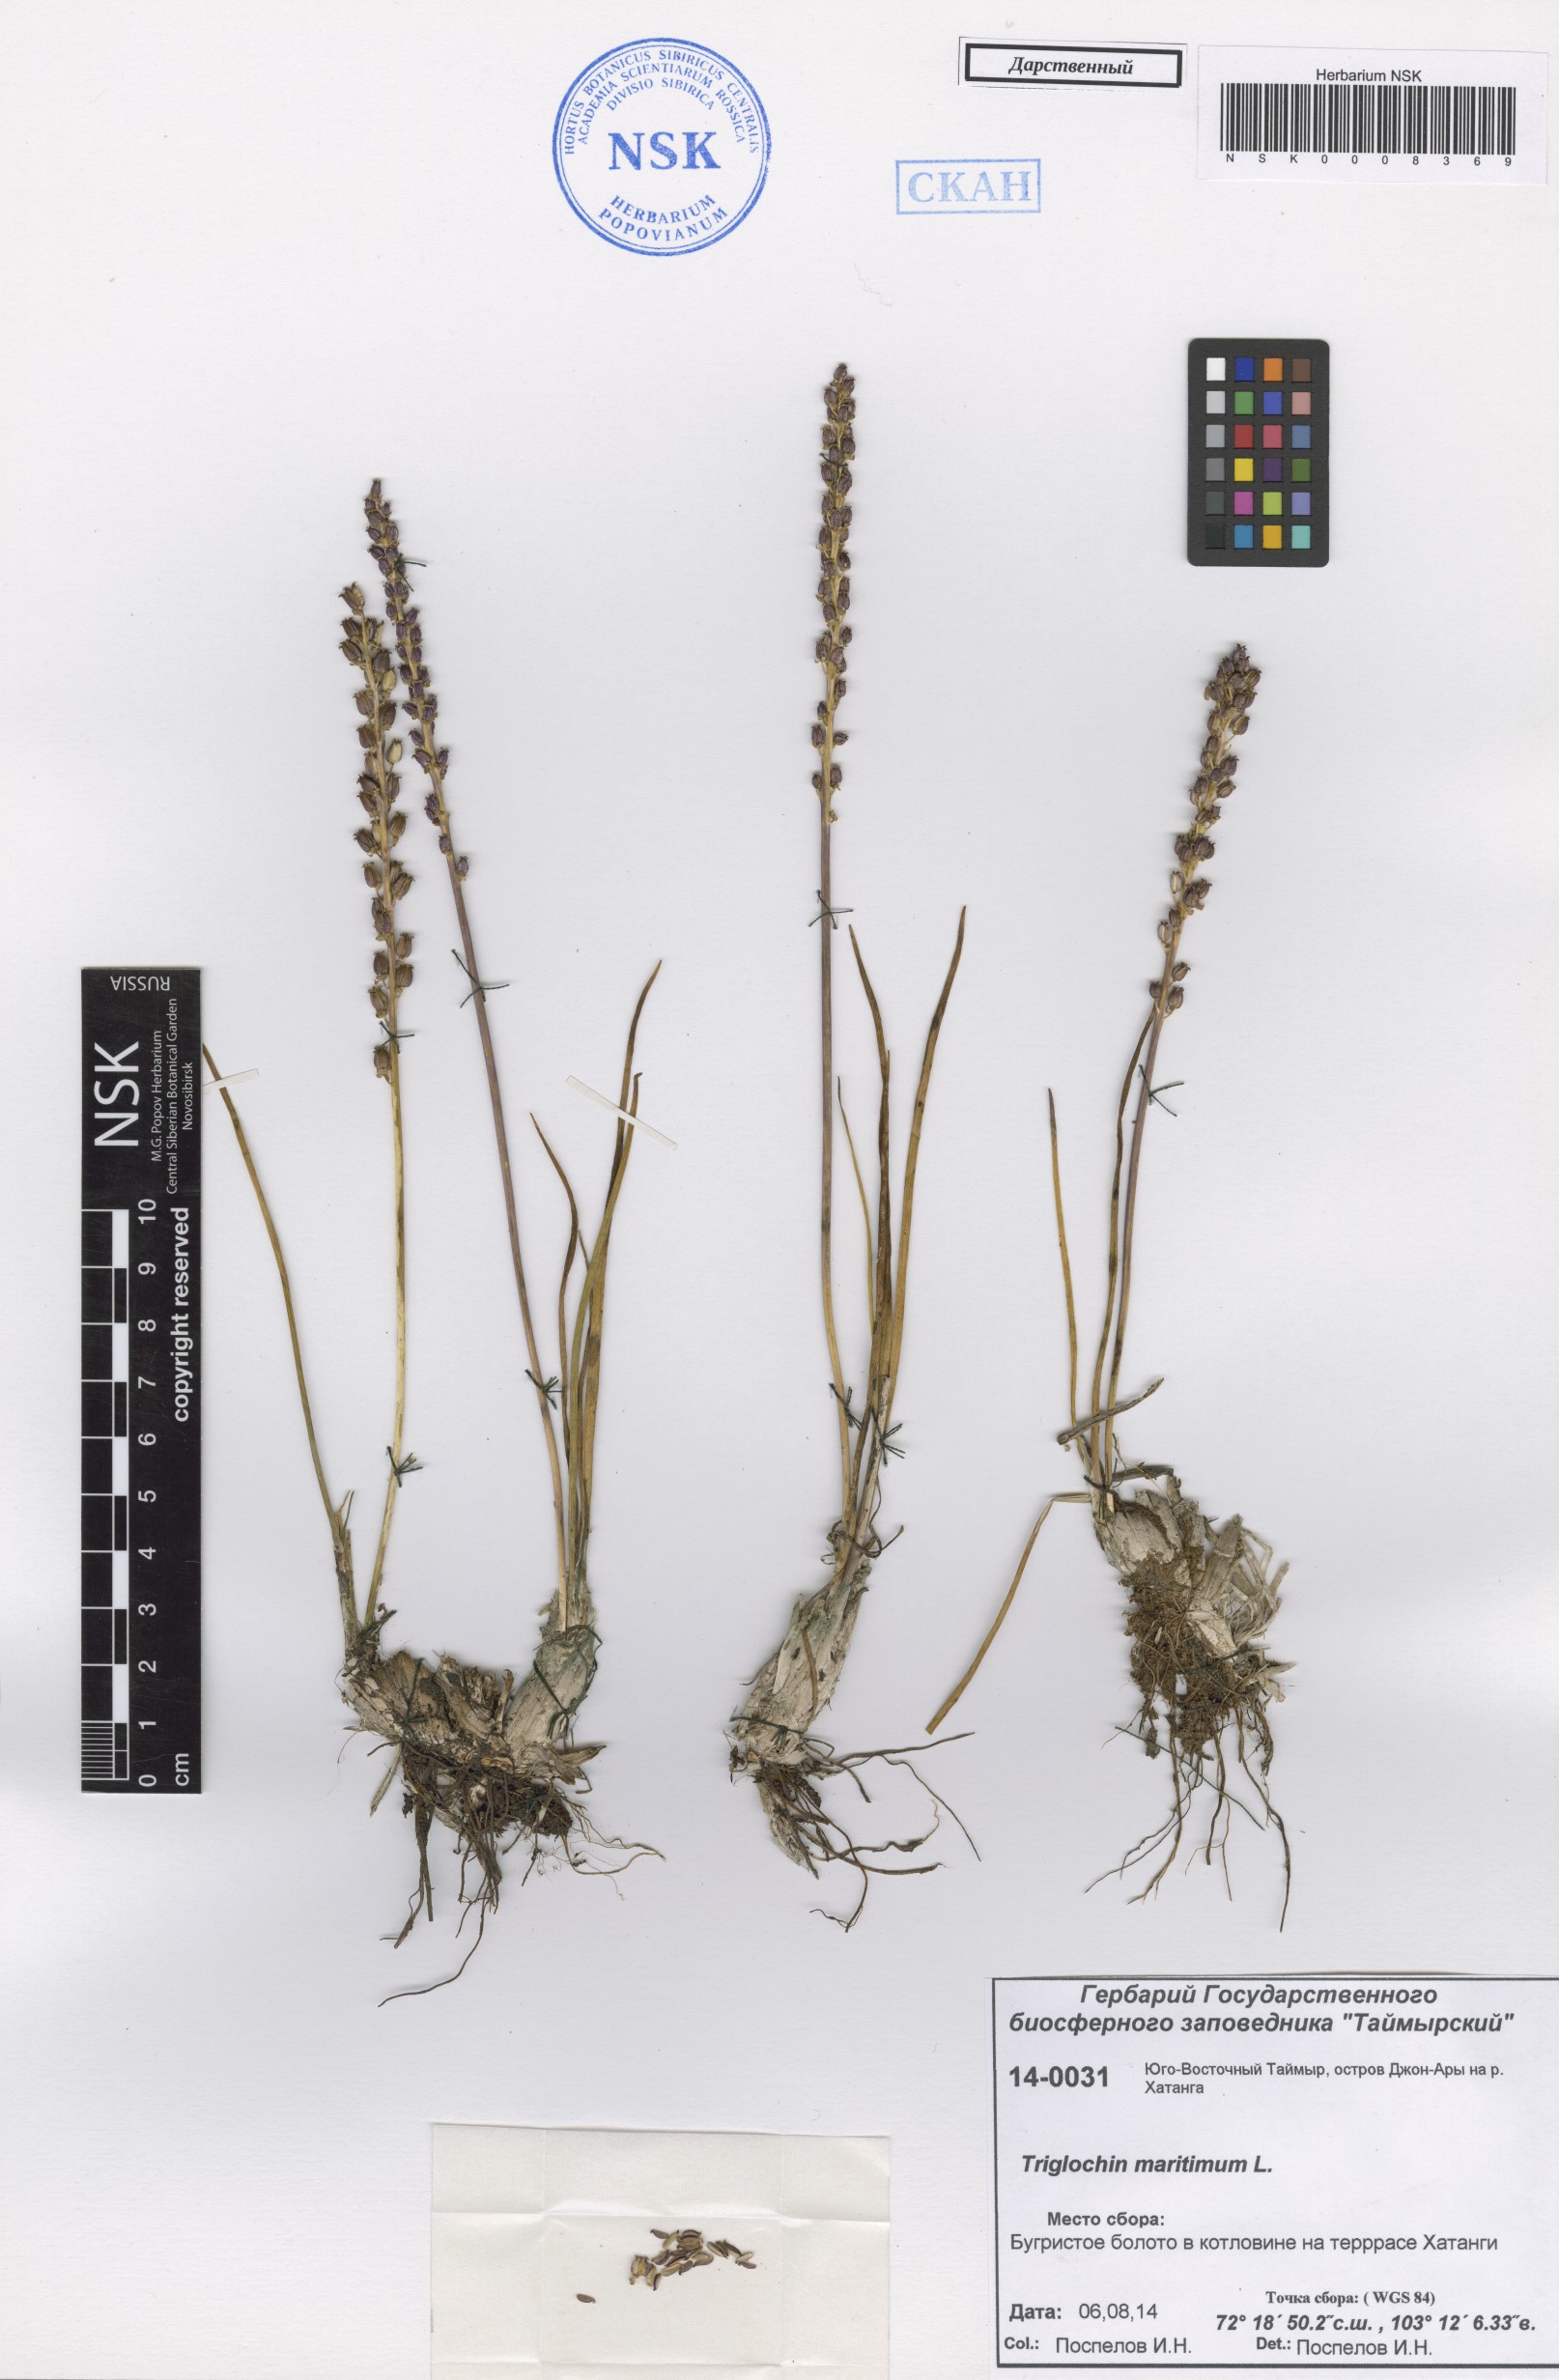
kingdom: Plantae
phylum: Tracheophyta
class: Liliopsida
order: Alismatales
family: Juncaginaceae
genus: Triglochin
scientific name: Triglochin maritima
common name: Sea arrowgrass
